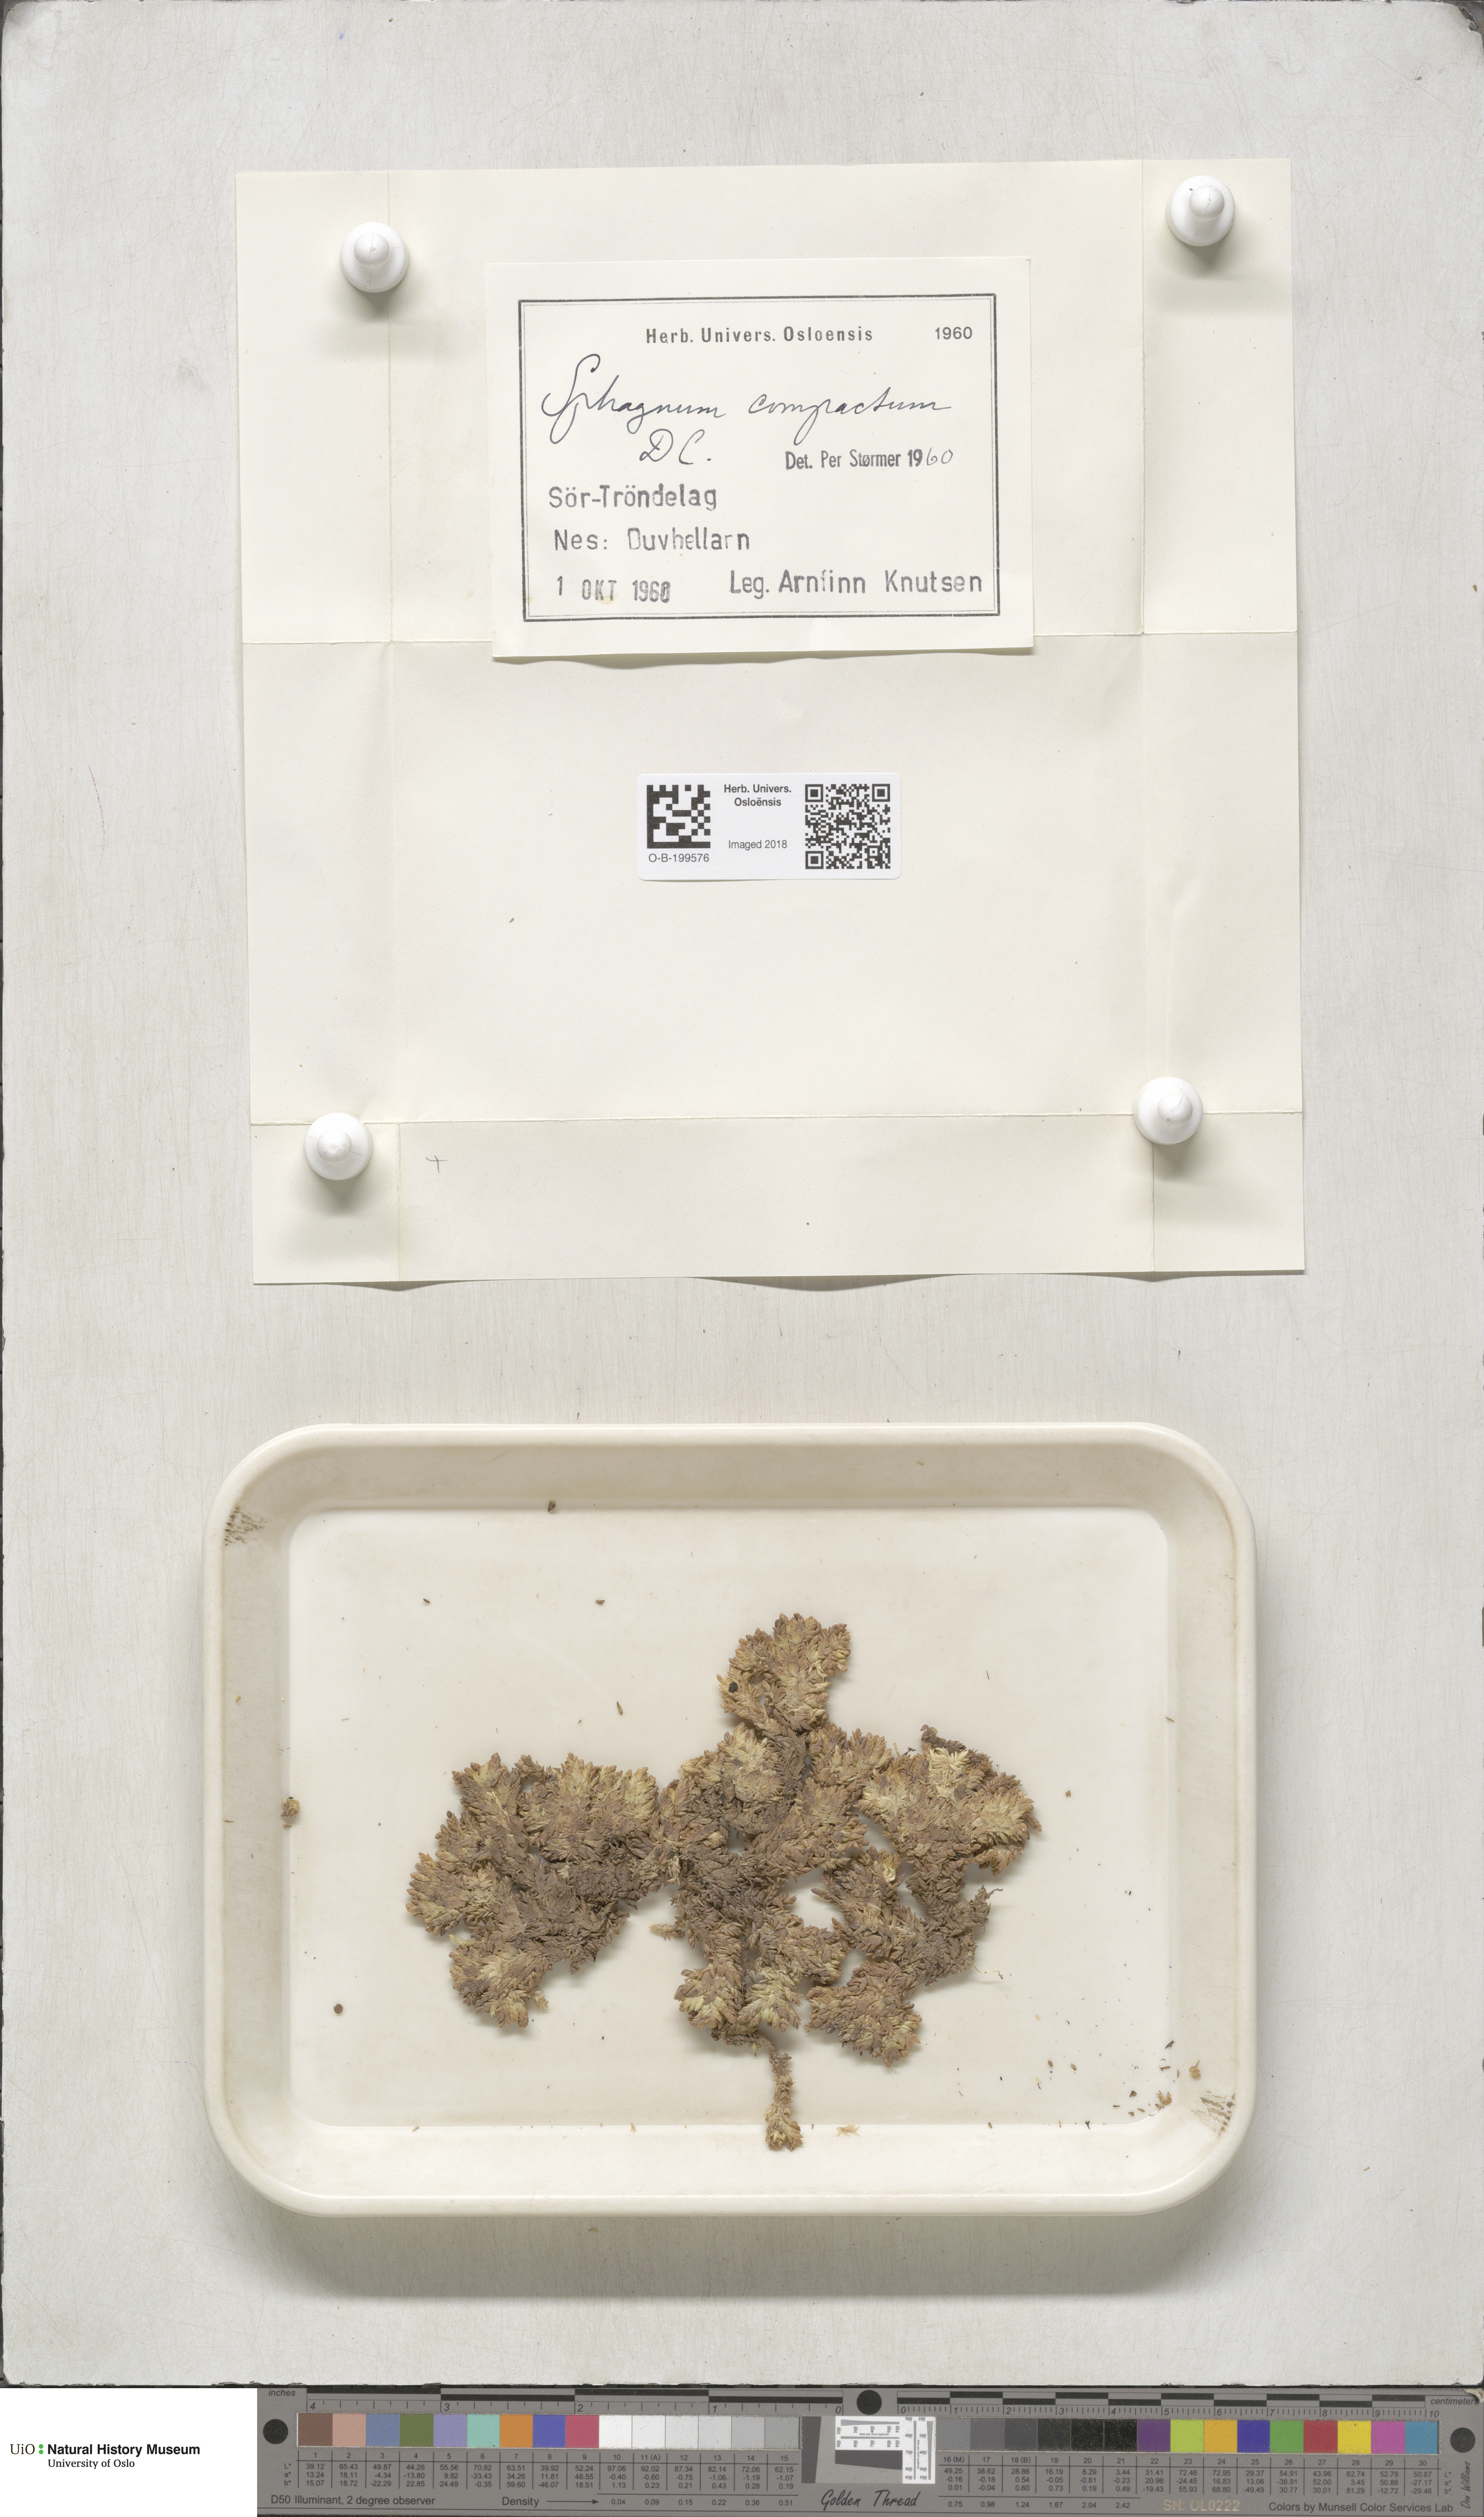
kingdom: Plantae
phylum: Bryophyta
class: Sphagnopsida
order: Sphagnales
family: Sphagnaceae
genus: Sphagnum
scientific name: Sphagnum compactum
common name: Compact peat moss
